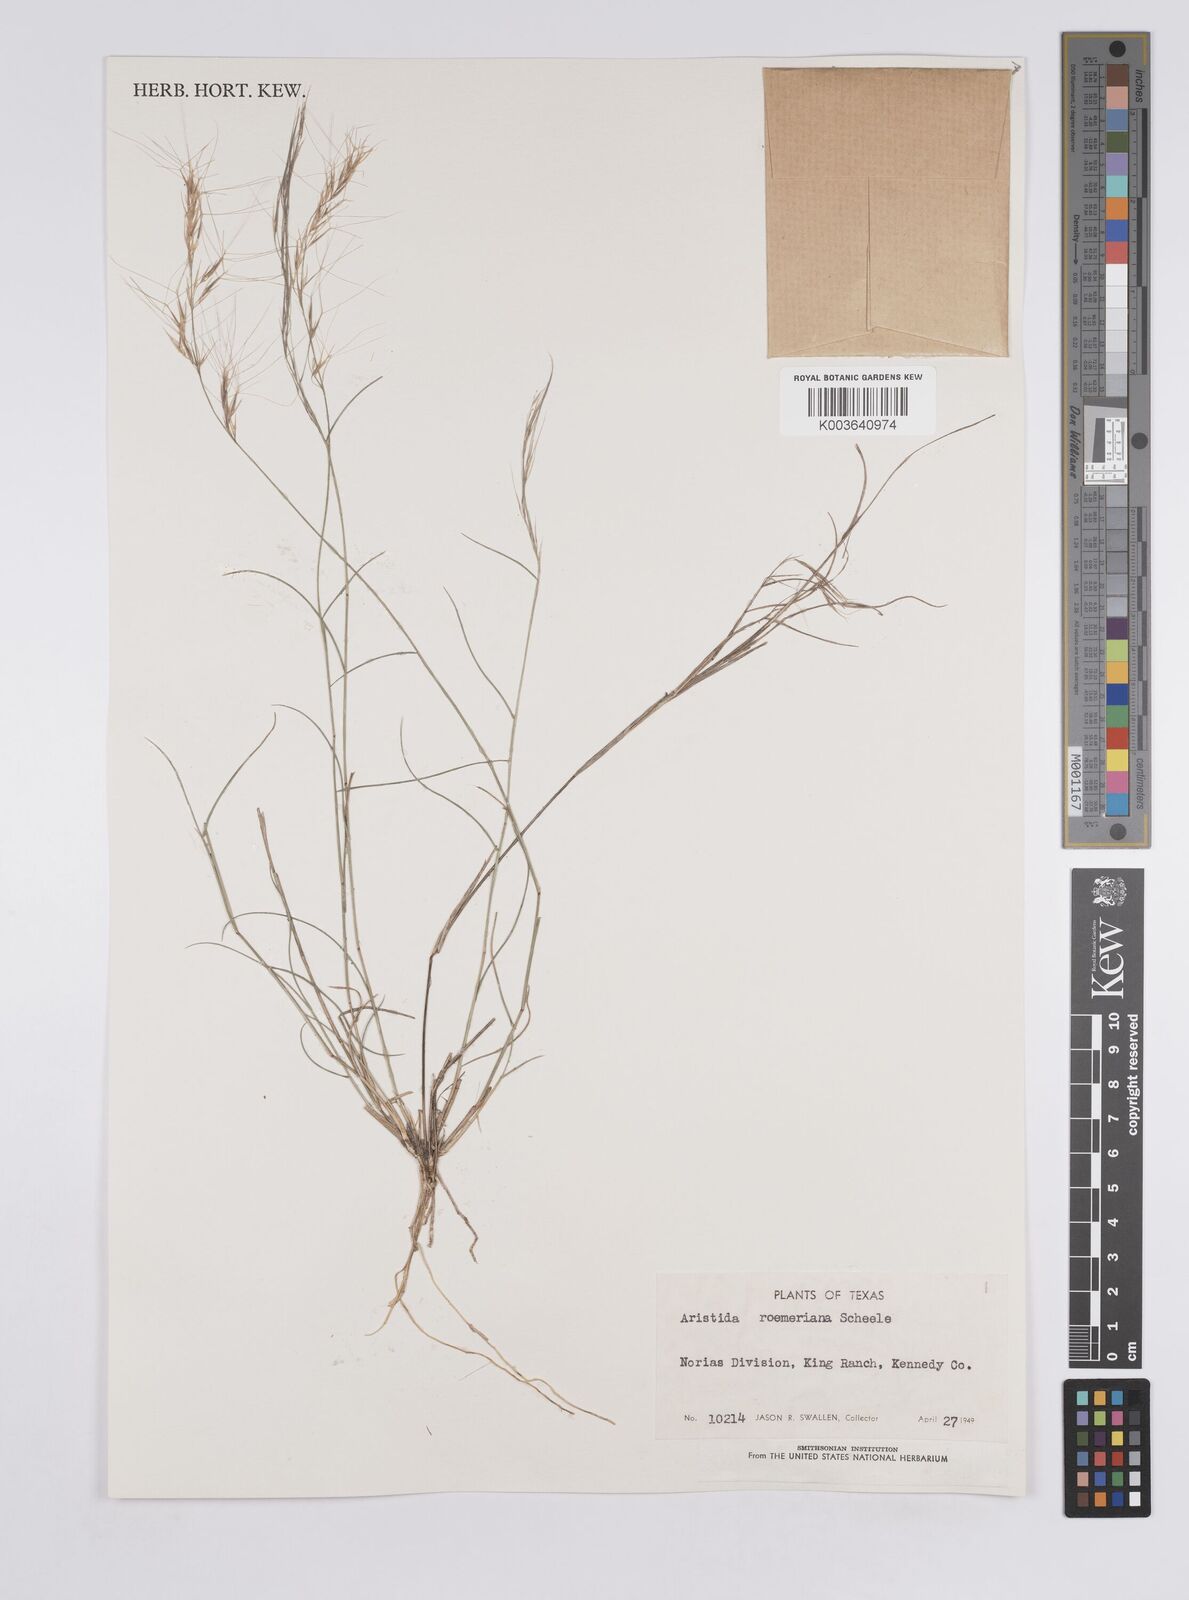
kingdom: Plantae
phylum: Tracheophyta
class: Liliopsida
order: Poales
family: Poaceae
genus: Aristida
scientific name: Aristida purpurea
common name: Purple threeawn
